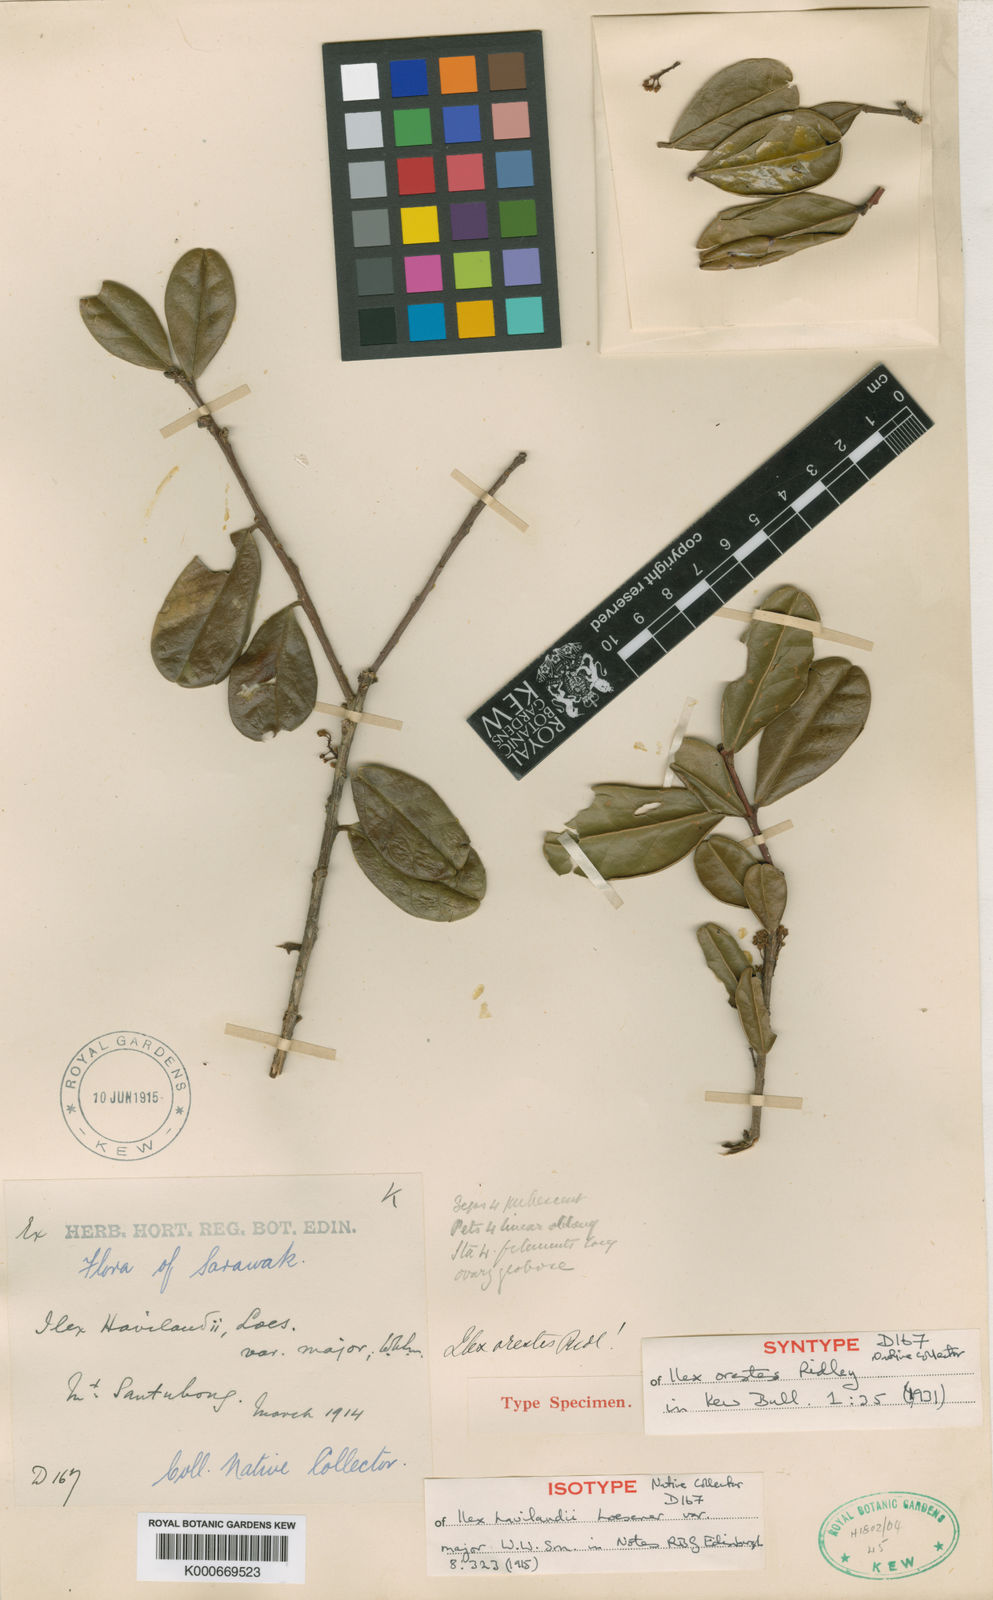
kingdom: Plantae
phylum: Tracheophyta
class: Magnoliopsida
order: Aquifoliales
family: Aquifoliaceae
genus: Ilex
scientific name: Ilex havilandii
